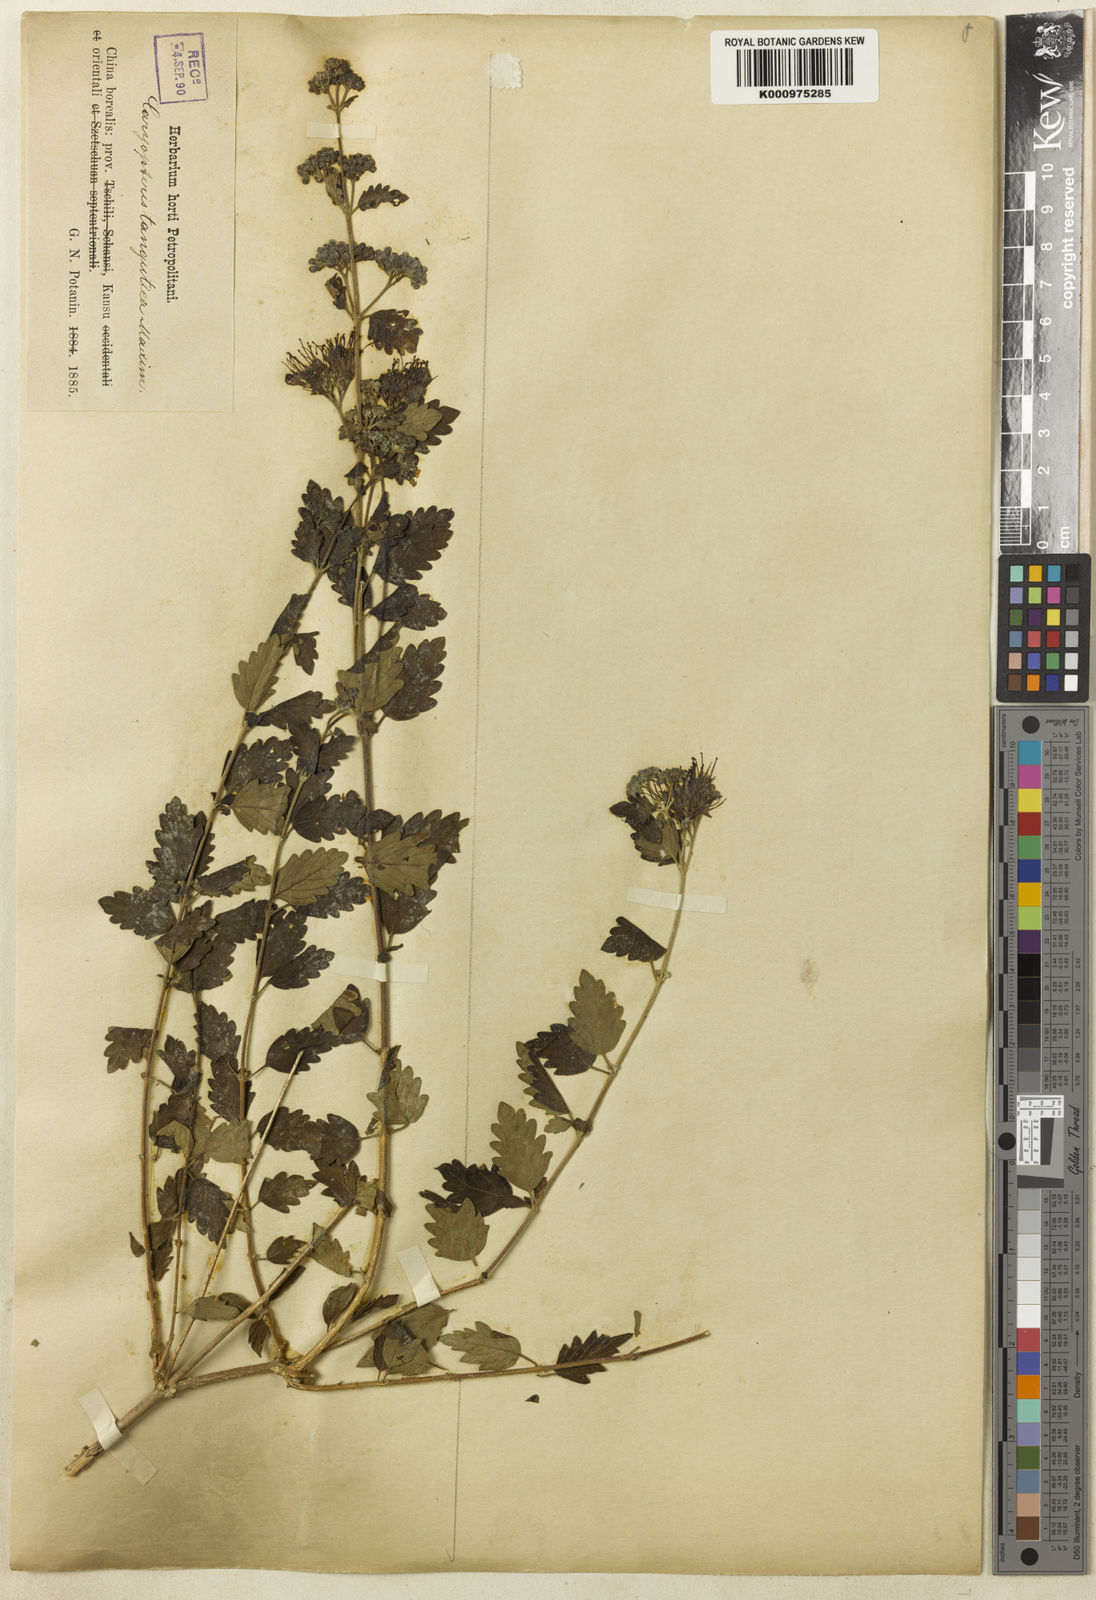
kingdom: Plantae
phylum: Tracheophyta
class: Magnoliopsida
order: Lamiales
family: Lamiaceae
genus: Caryopteris
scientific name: Caryopteris incana
